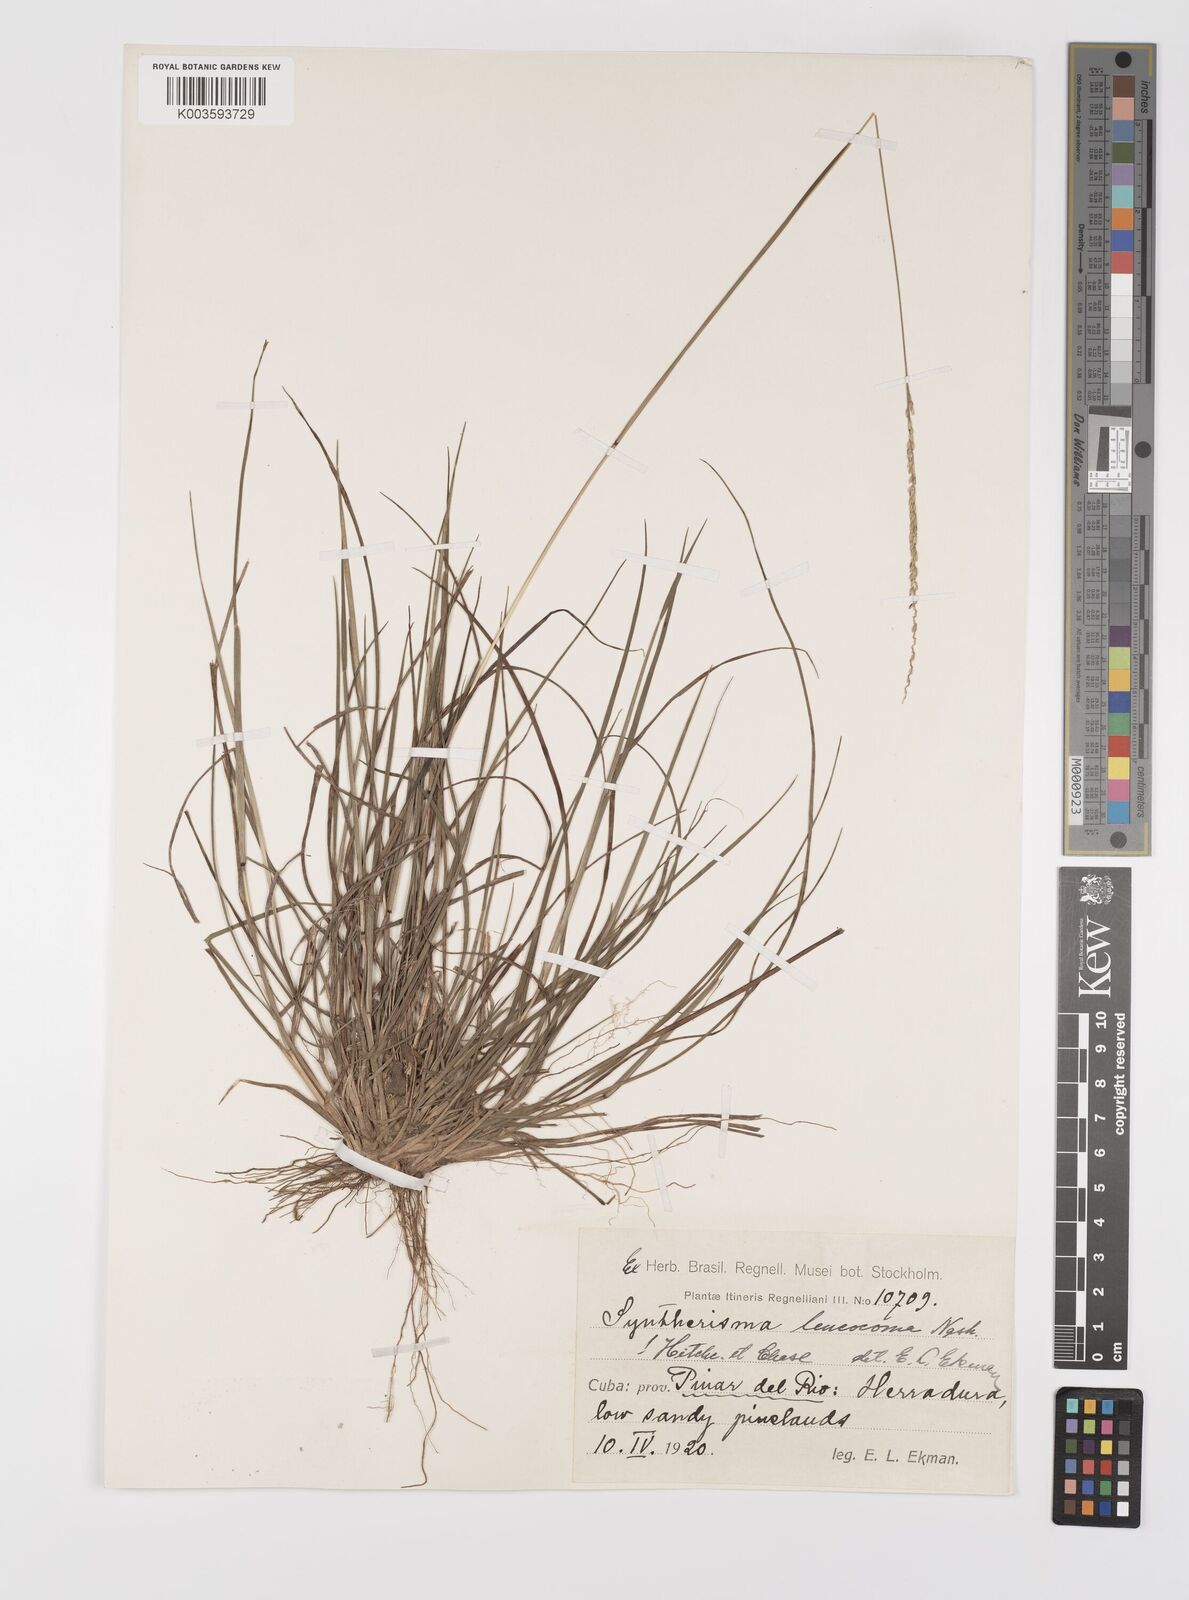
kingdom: Plantae
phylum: Tracheophyta
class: Liliopsida
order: Poales
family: Poaceae
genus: Digitaria
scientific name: Digitaria villosa
